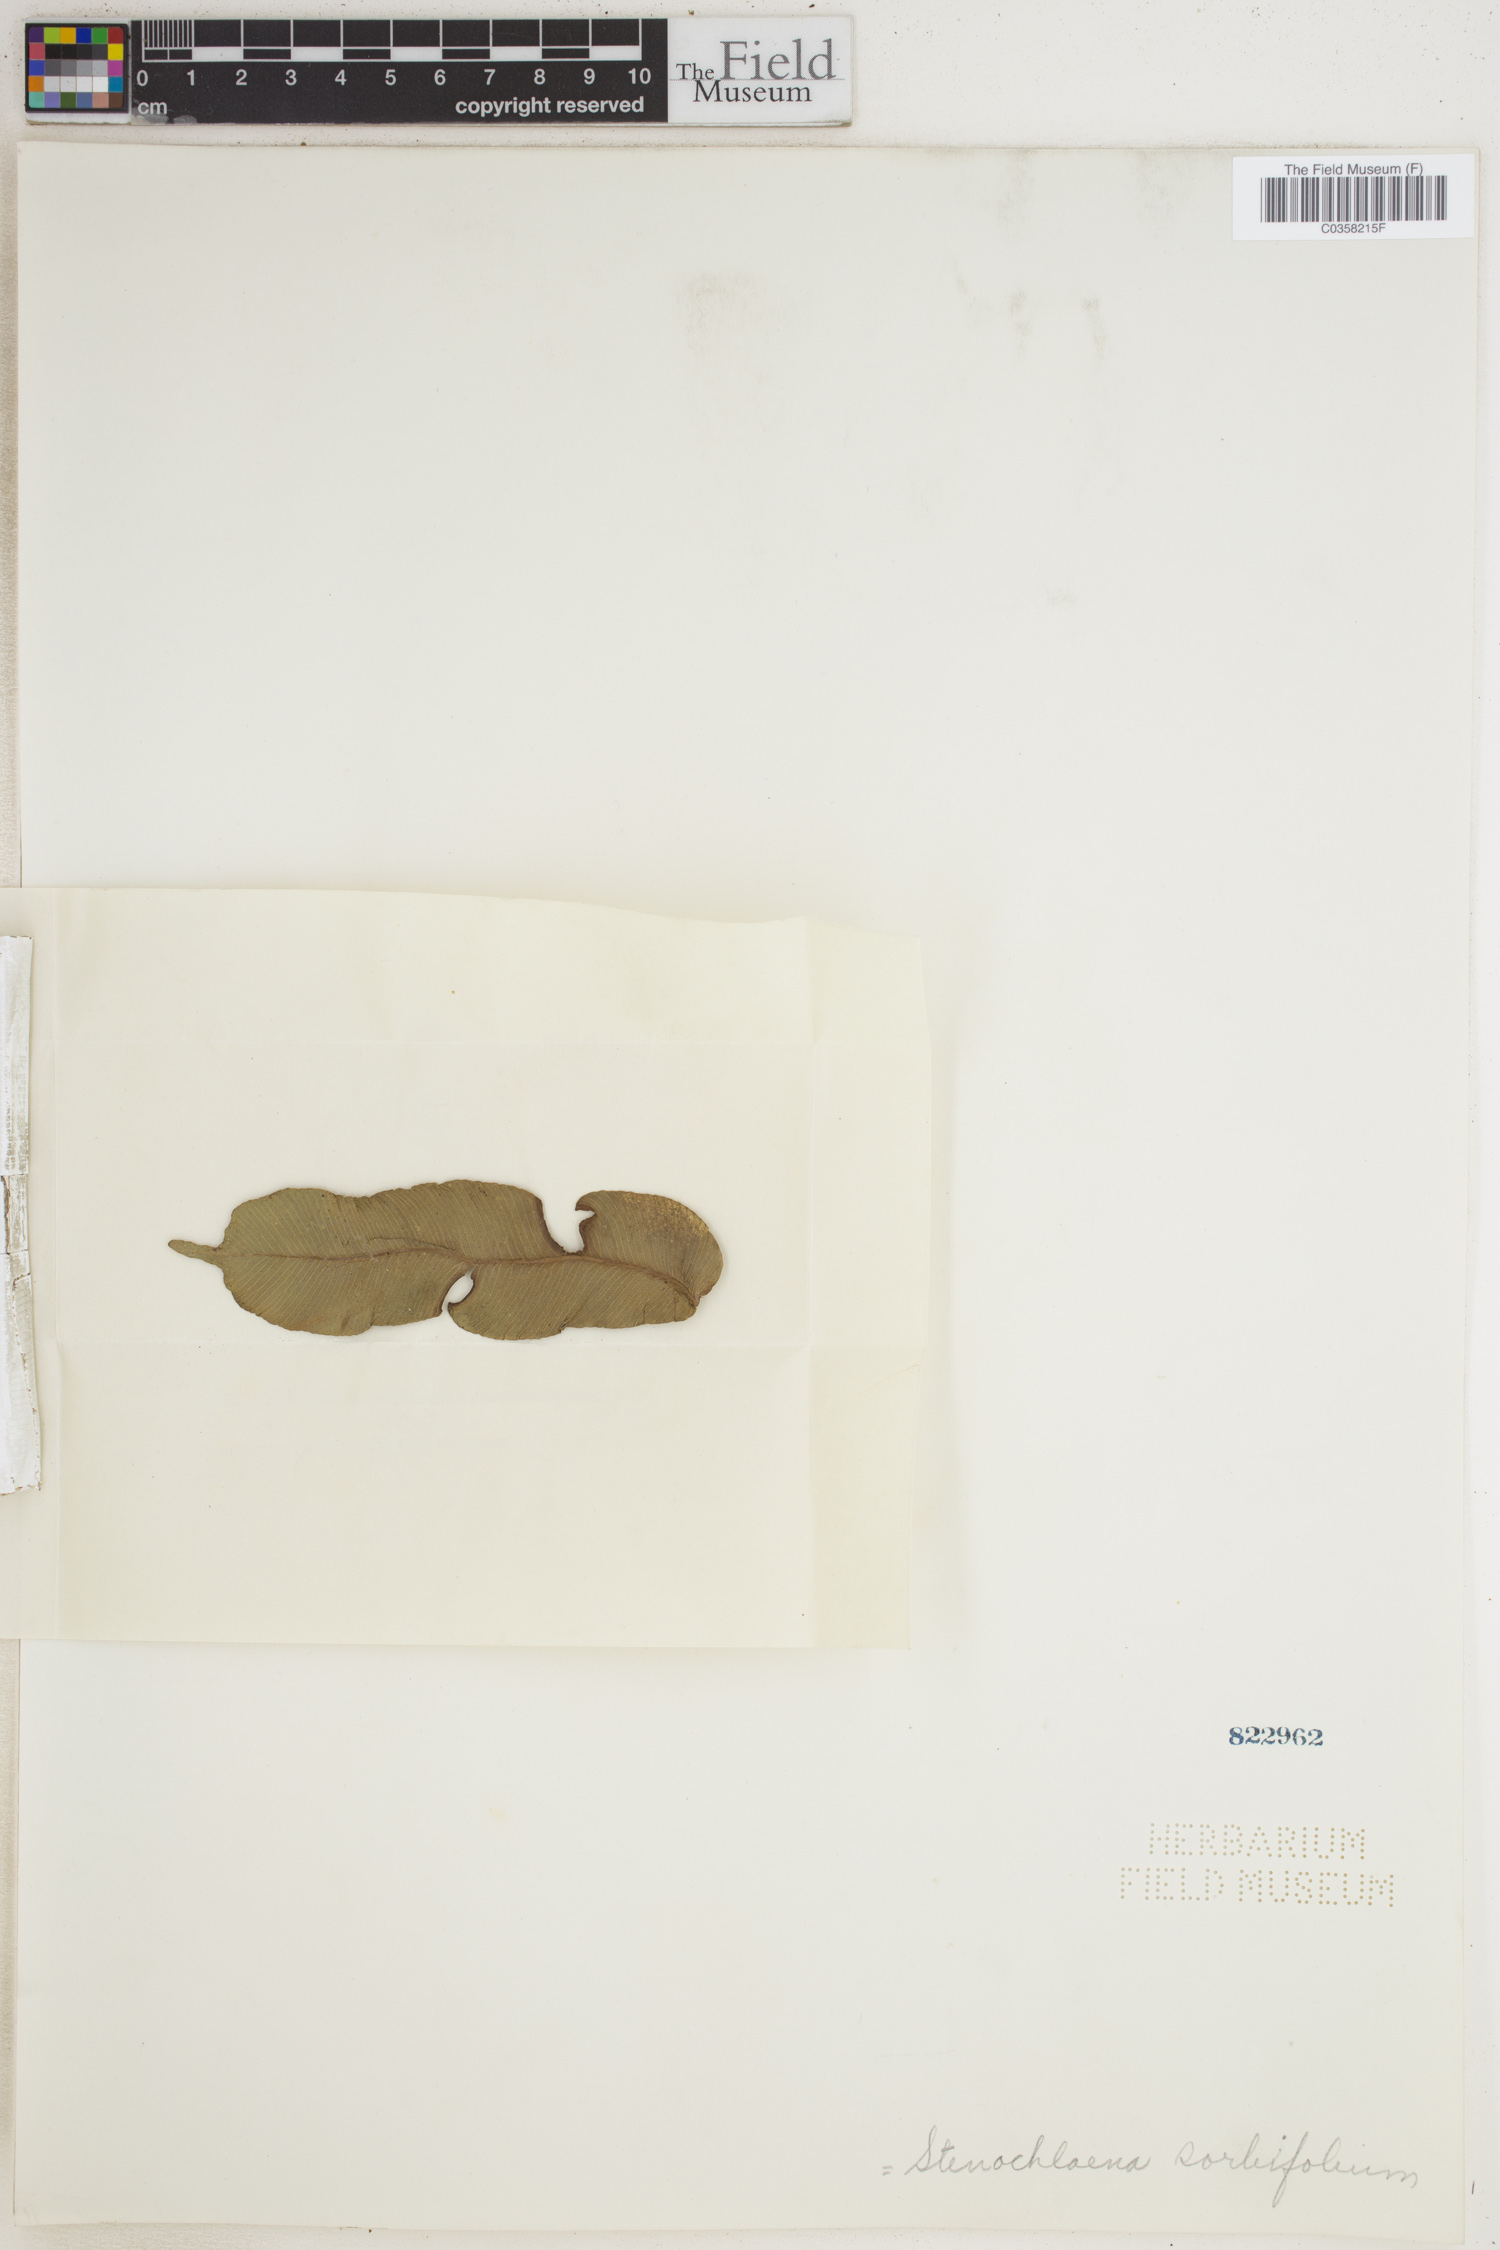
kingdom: Plantae
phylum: Tracheophyta
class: Polypodiopsida
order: Polypodiales
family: Lomariopsidaceae
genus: Lomariopsis
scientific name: Lomariopsis sorbifolia
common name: Acacia fringedfern
